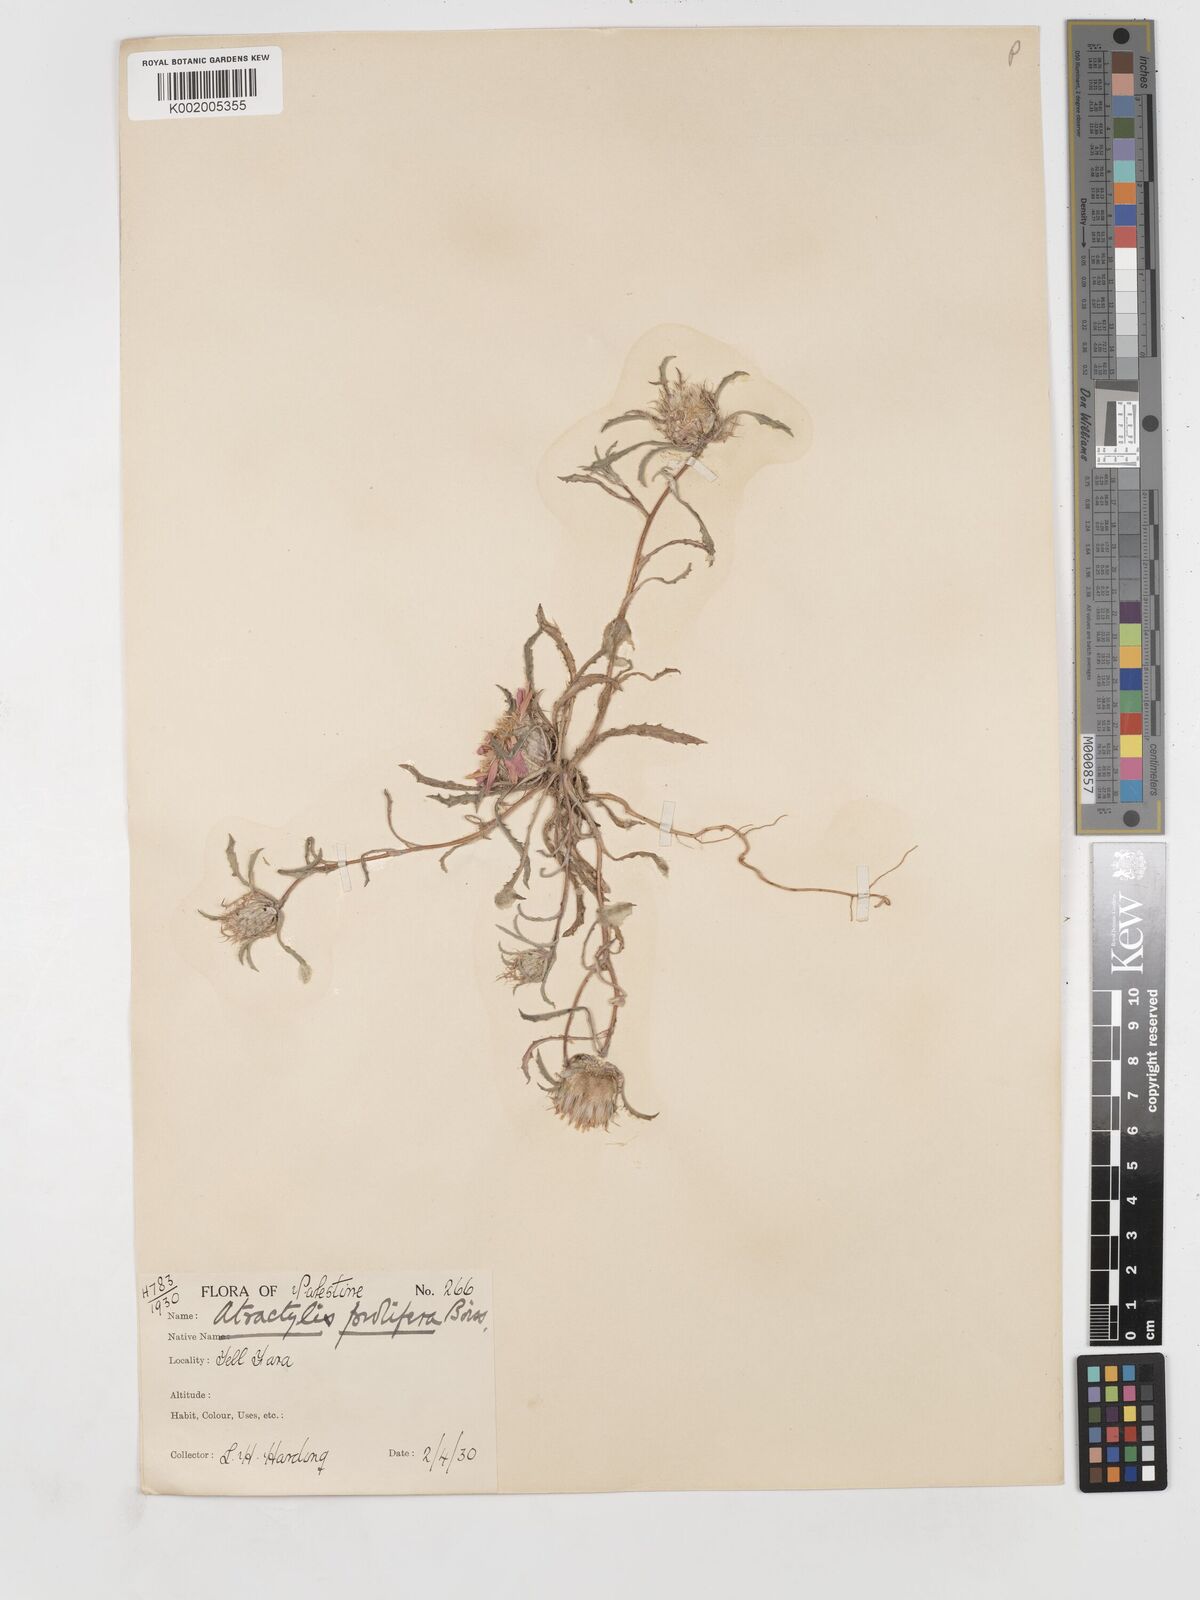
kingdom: Plantae
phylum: Tracheophyta
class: Magnoliopsida
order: Asterales
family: Asteraceae
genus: Atractylis
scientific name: Atractylis prolifera
